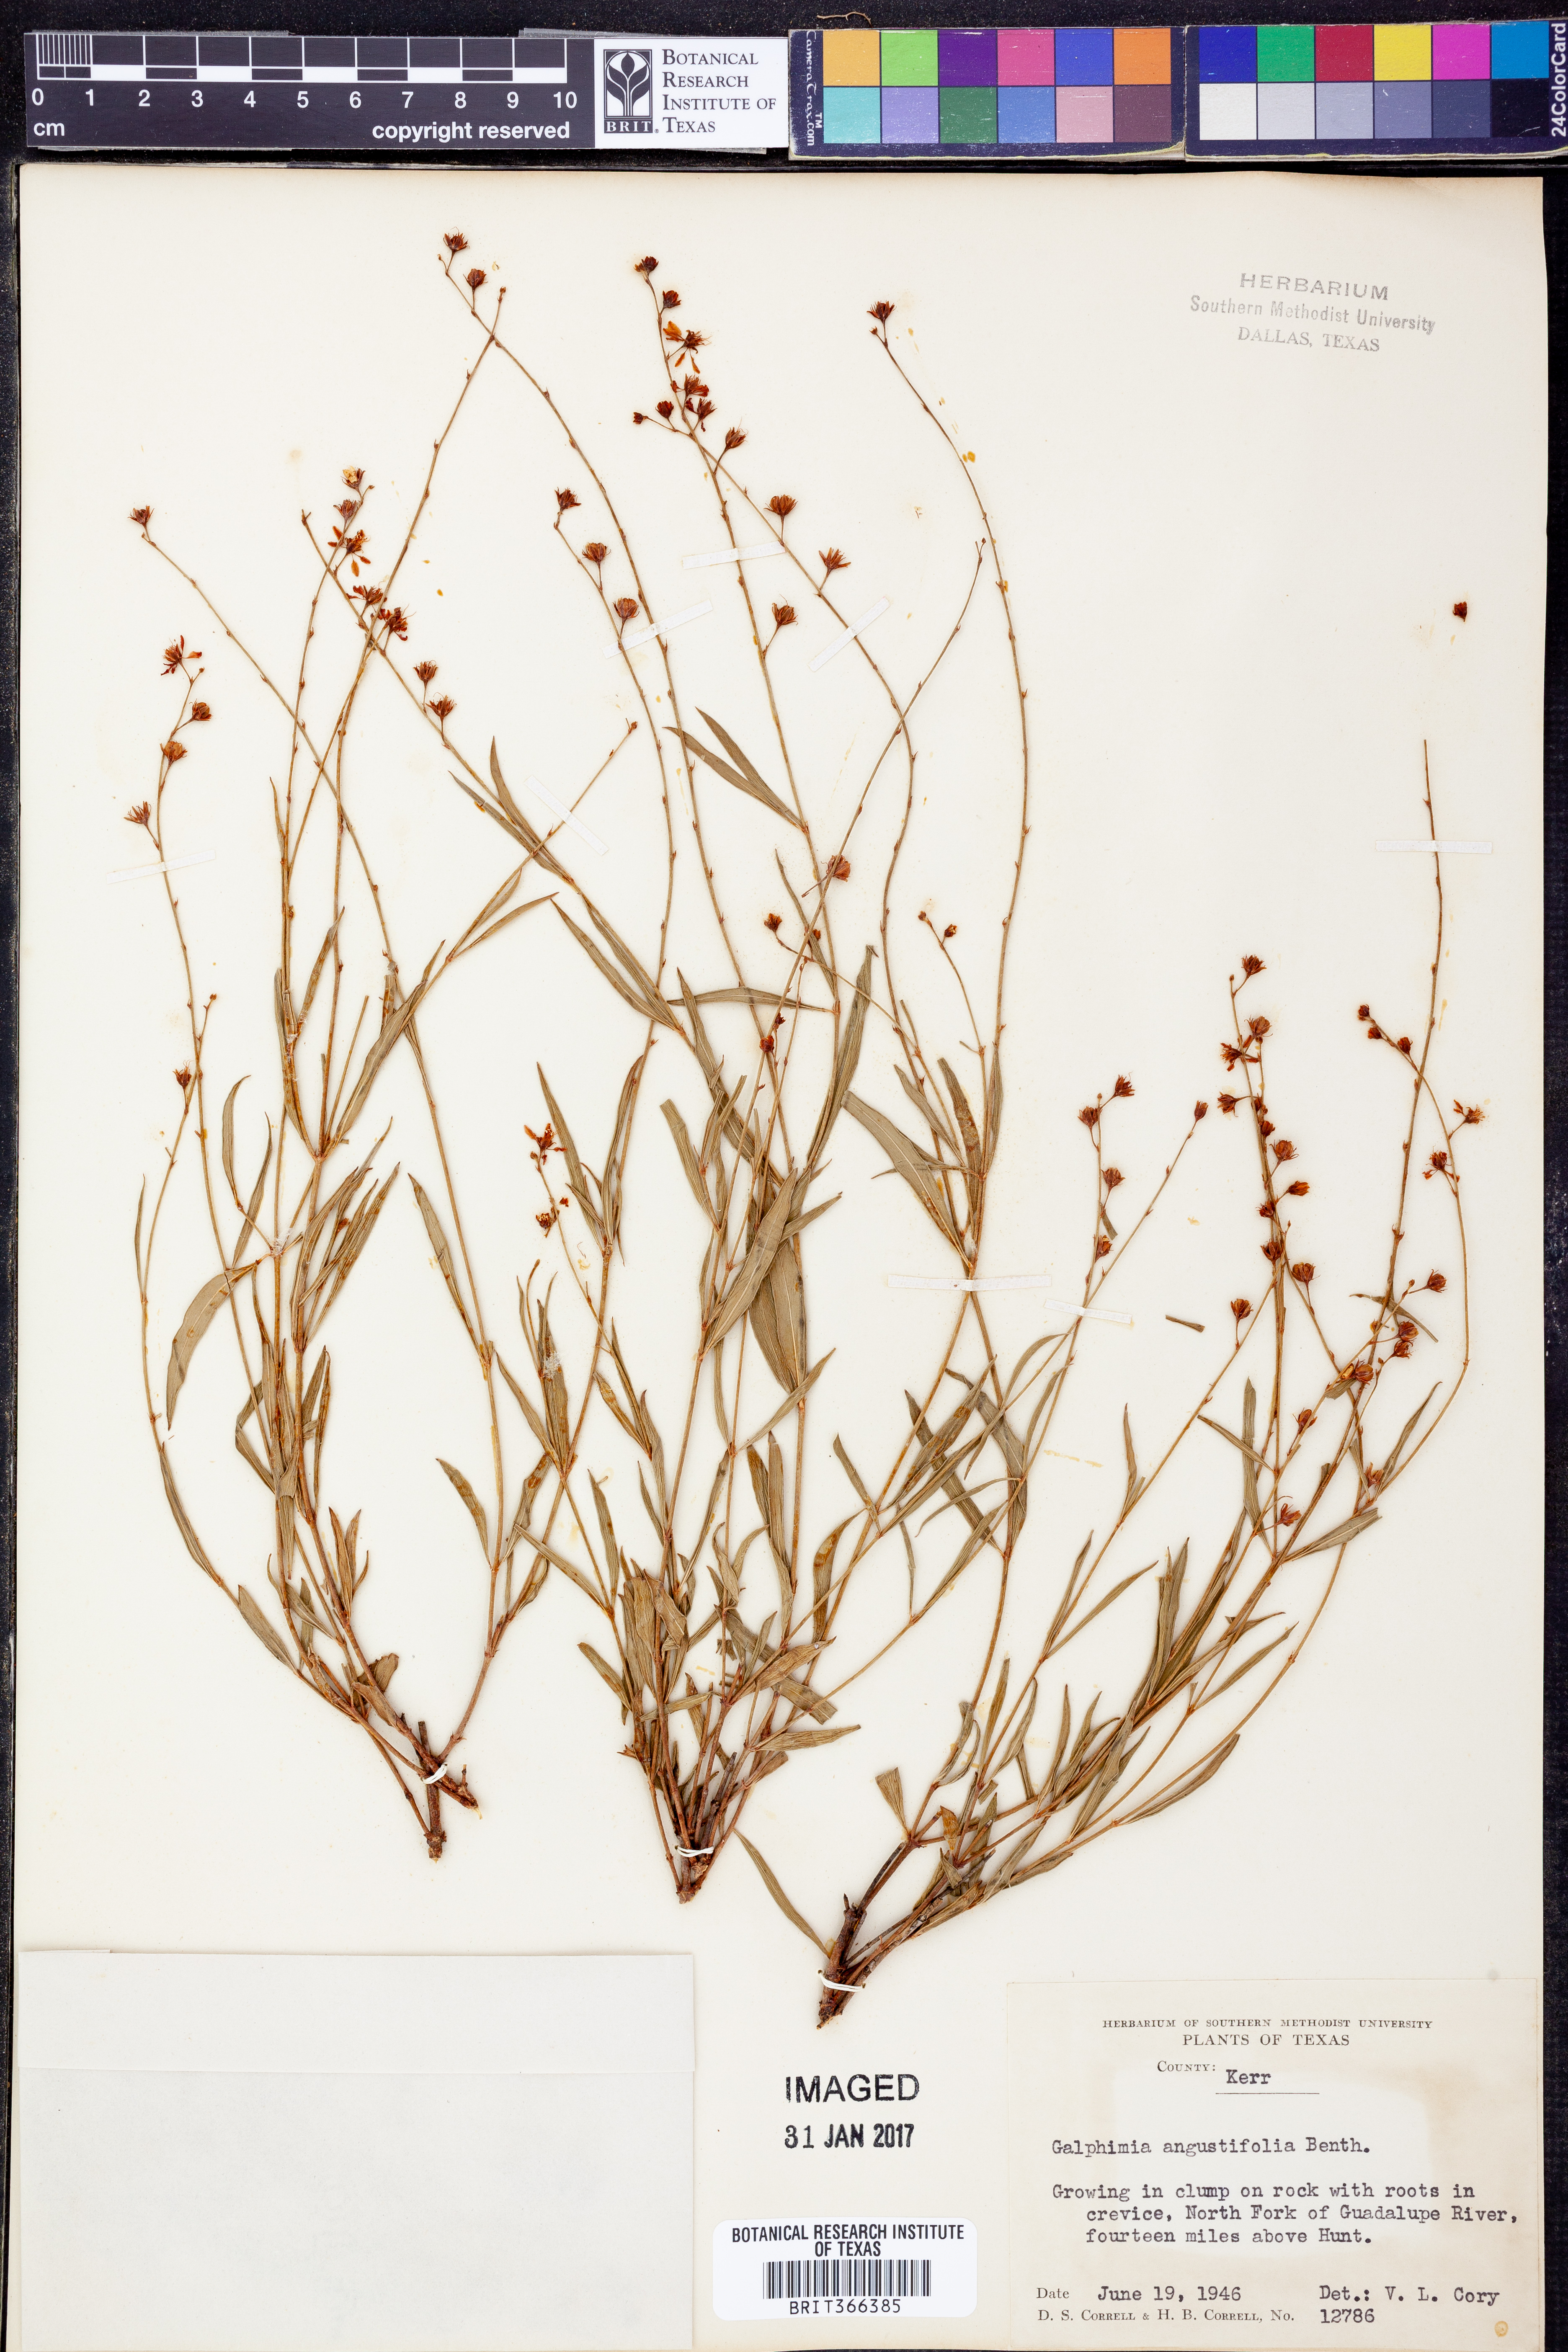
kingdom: Plantae
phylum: Tracheophyta
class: Magnoliopsida
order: Malpighiales
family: Malpighiaceae
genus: Galphimia
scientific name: Galphimia angustifolia
